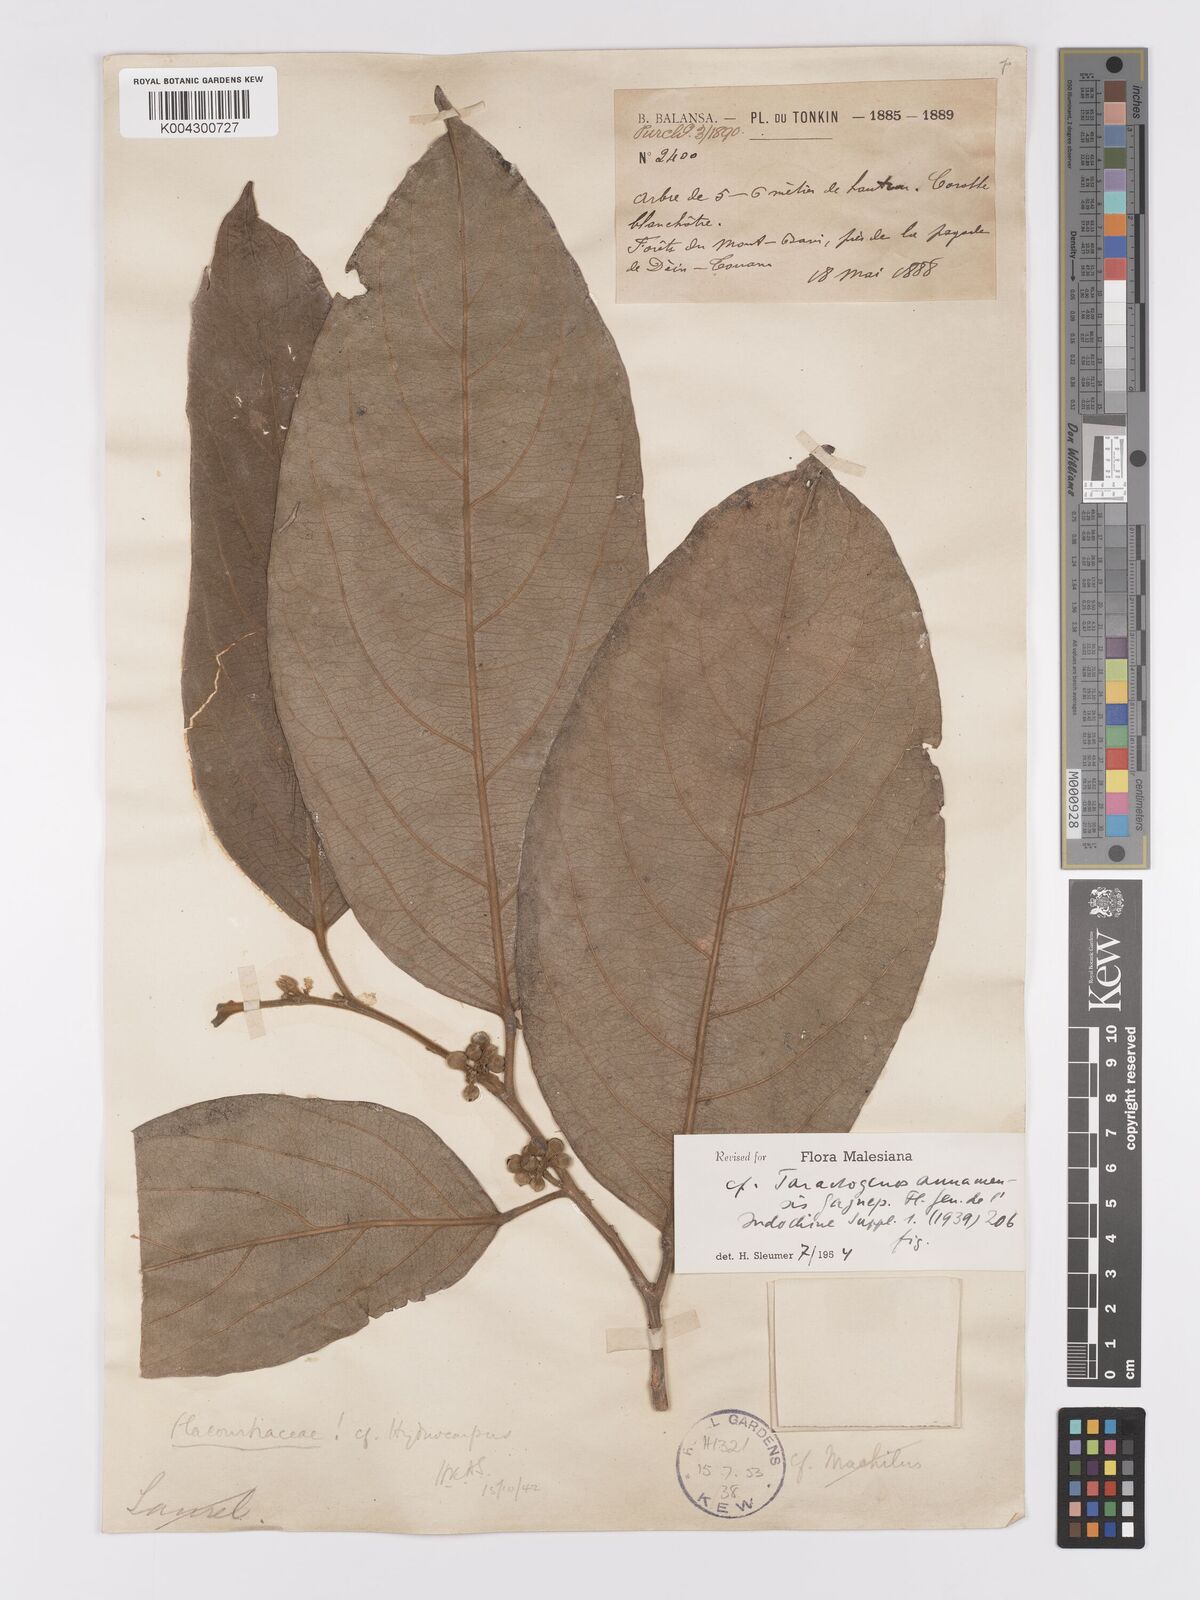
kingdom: Plantae
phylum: Tracheophyta
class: Magnoliopsida
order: Malpighiales
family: Achariaceae
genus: Hydnocarpus
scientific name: Hydnocarpus
